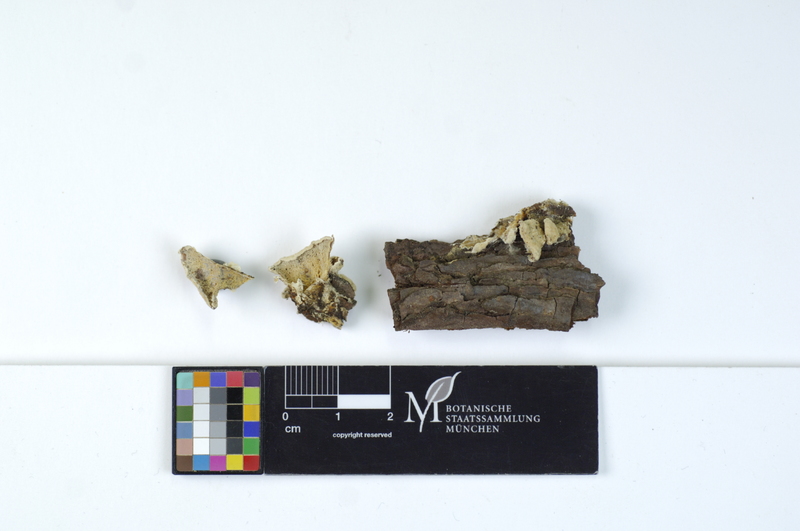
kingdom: Fungi
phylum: Basidiomycota
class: Agaricomycetes
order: Polyporales
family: Incrustoporiaceae
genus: Skeletocutis
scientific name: Skeletocutis carneogrisea
